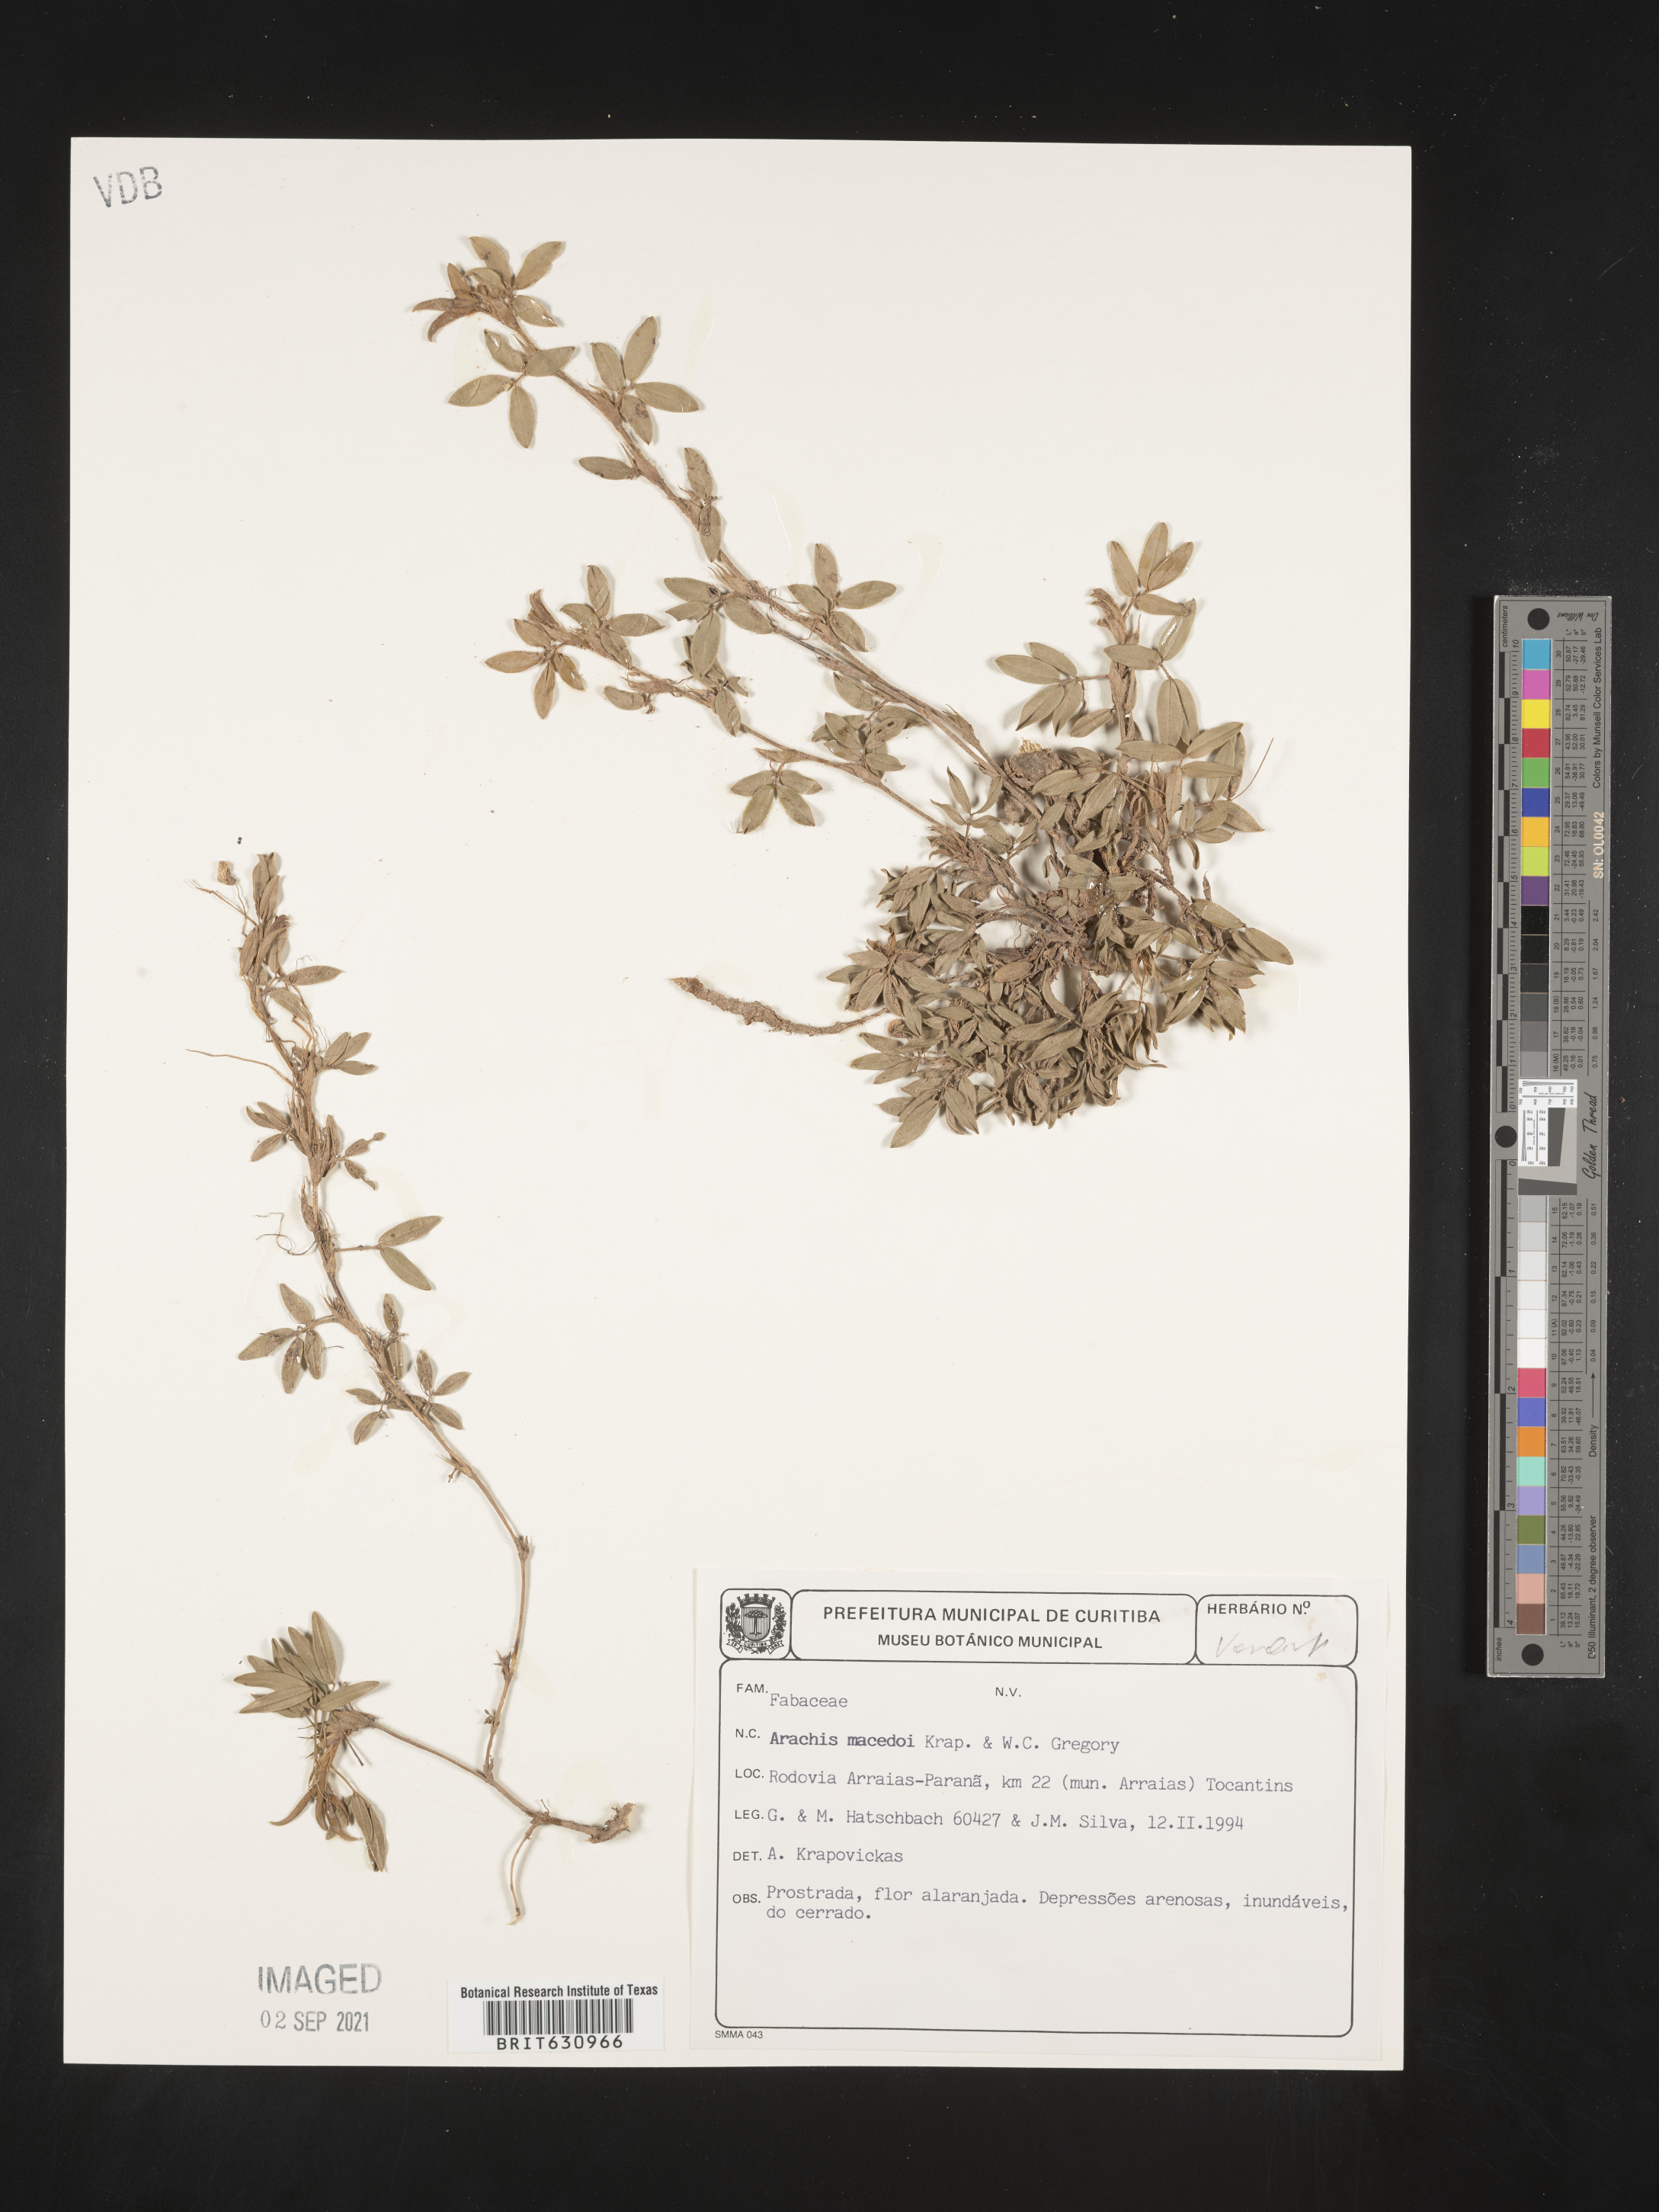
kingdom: Plantae
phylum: Tracheophyta
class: Magnoliopsida
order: Fabales
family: Fabaceae
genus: Arachis
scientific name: Arachis
